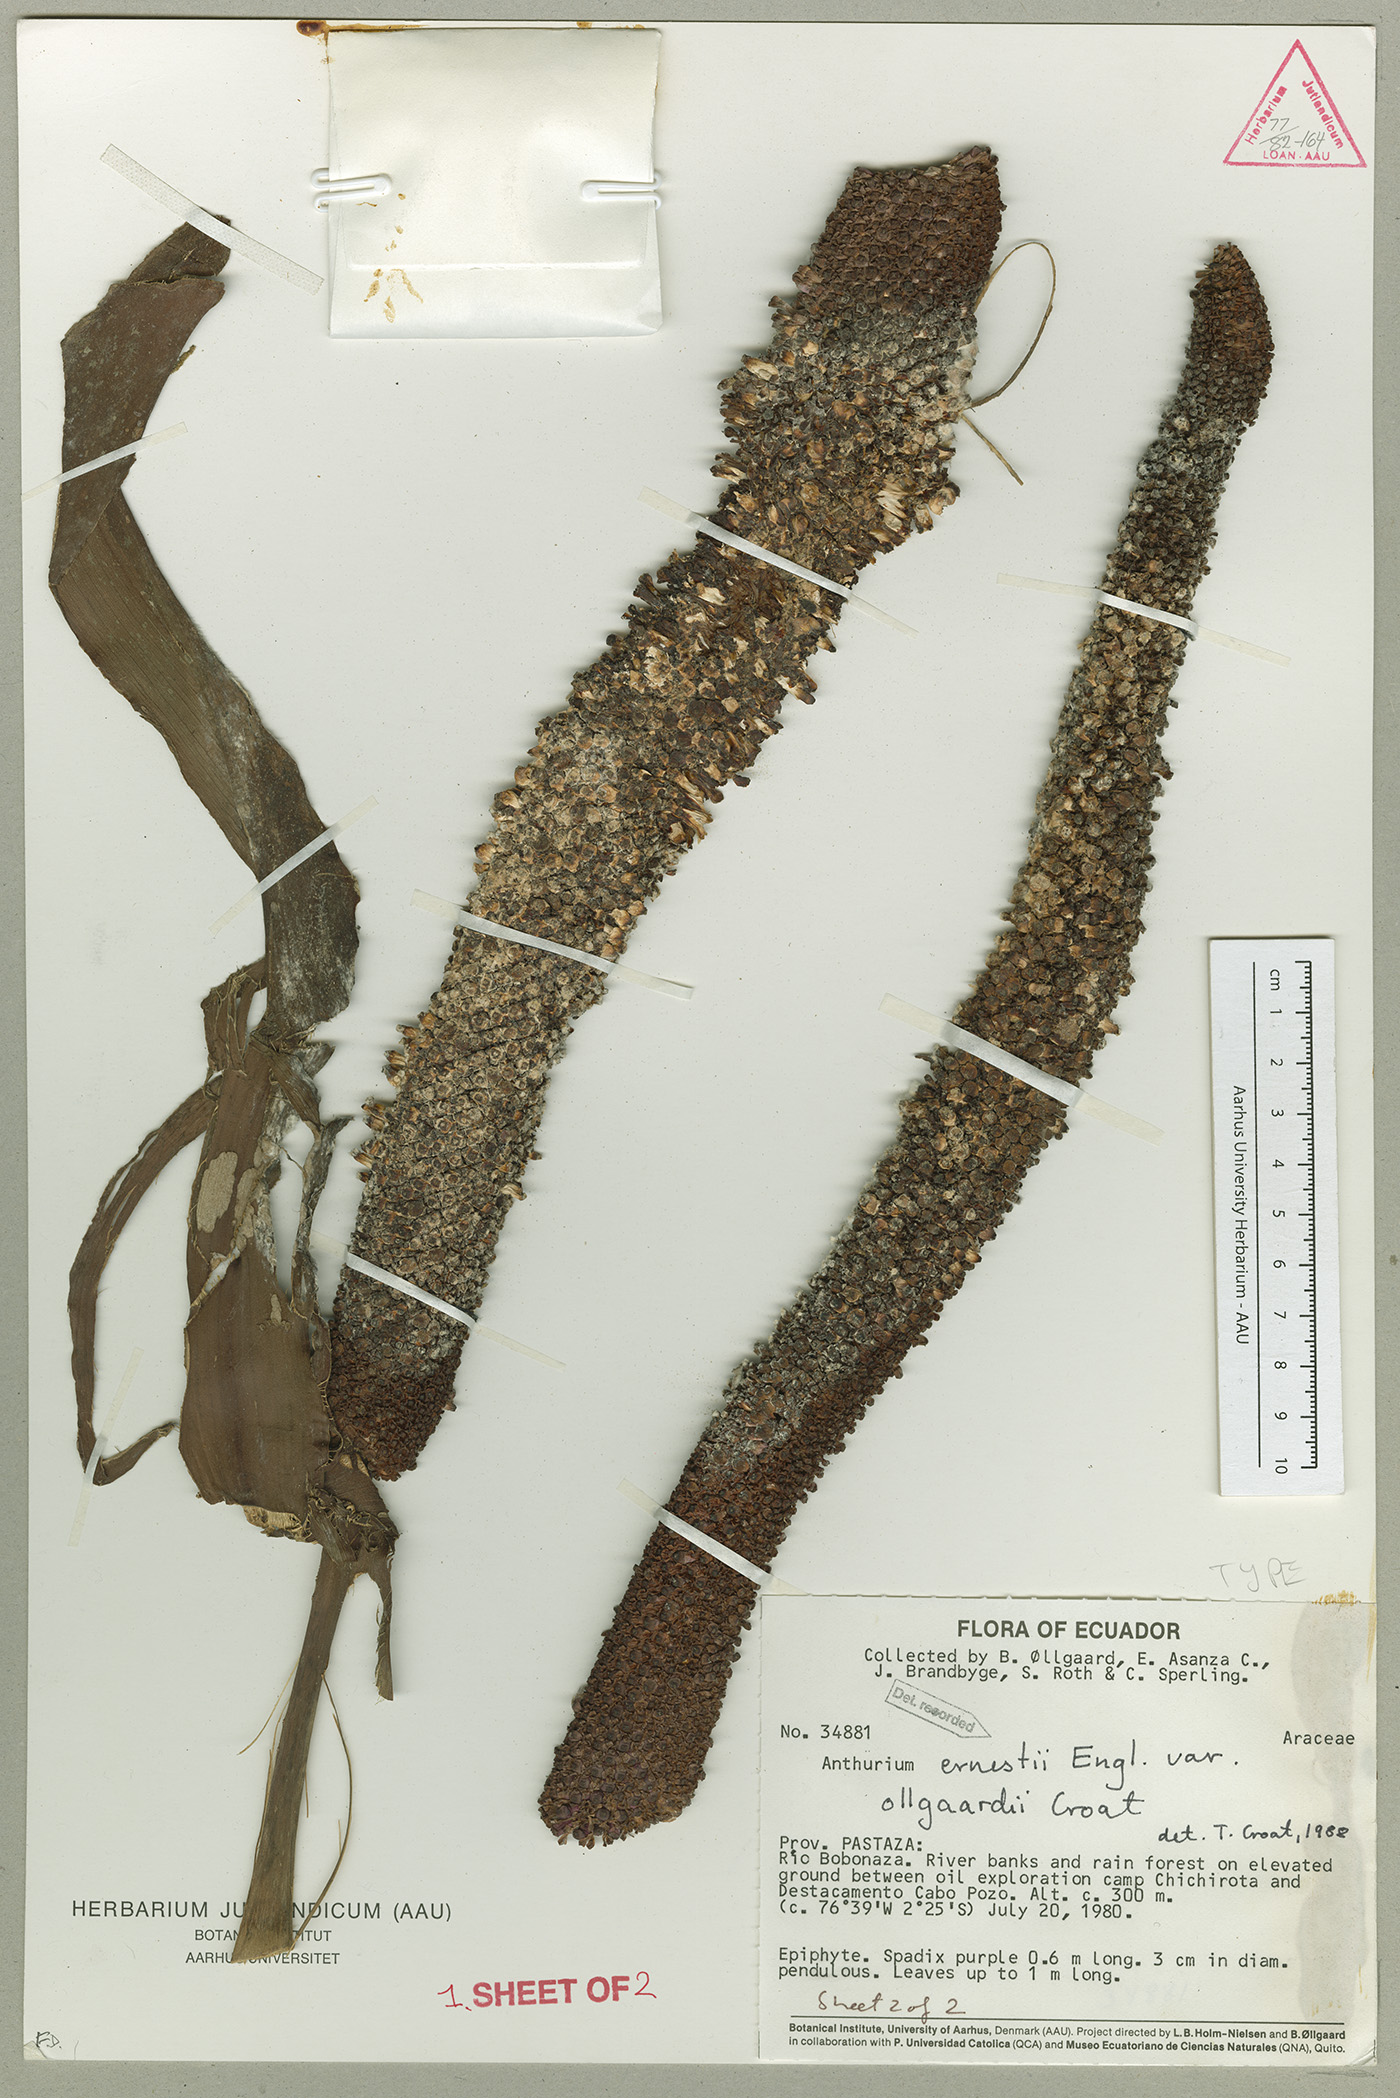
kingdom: Plantae
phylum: Tracheophyta
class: Liliopsida
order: Alismatales
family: Araceae
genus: Anthurium
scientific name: Anthurium ernesti
